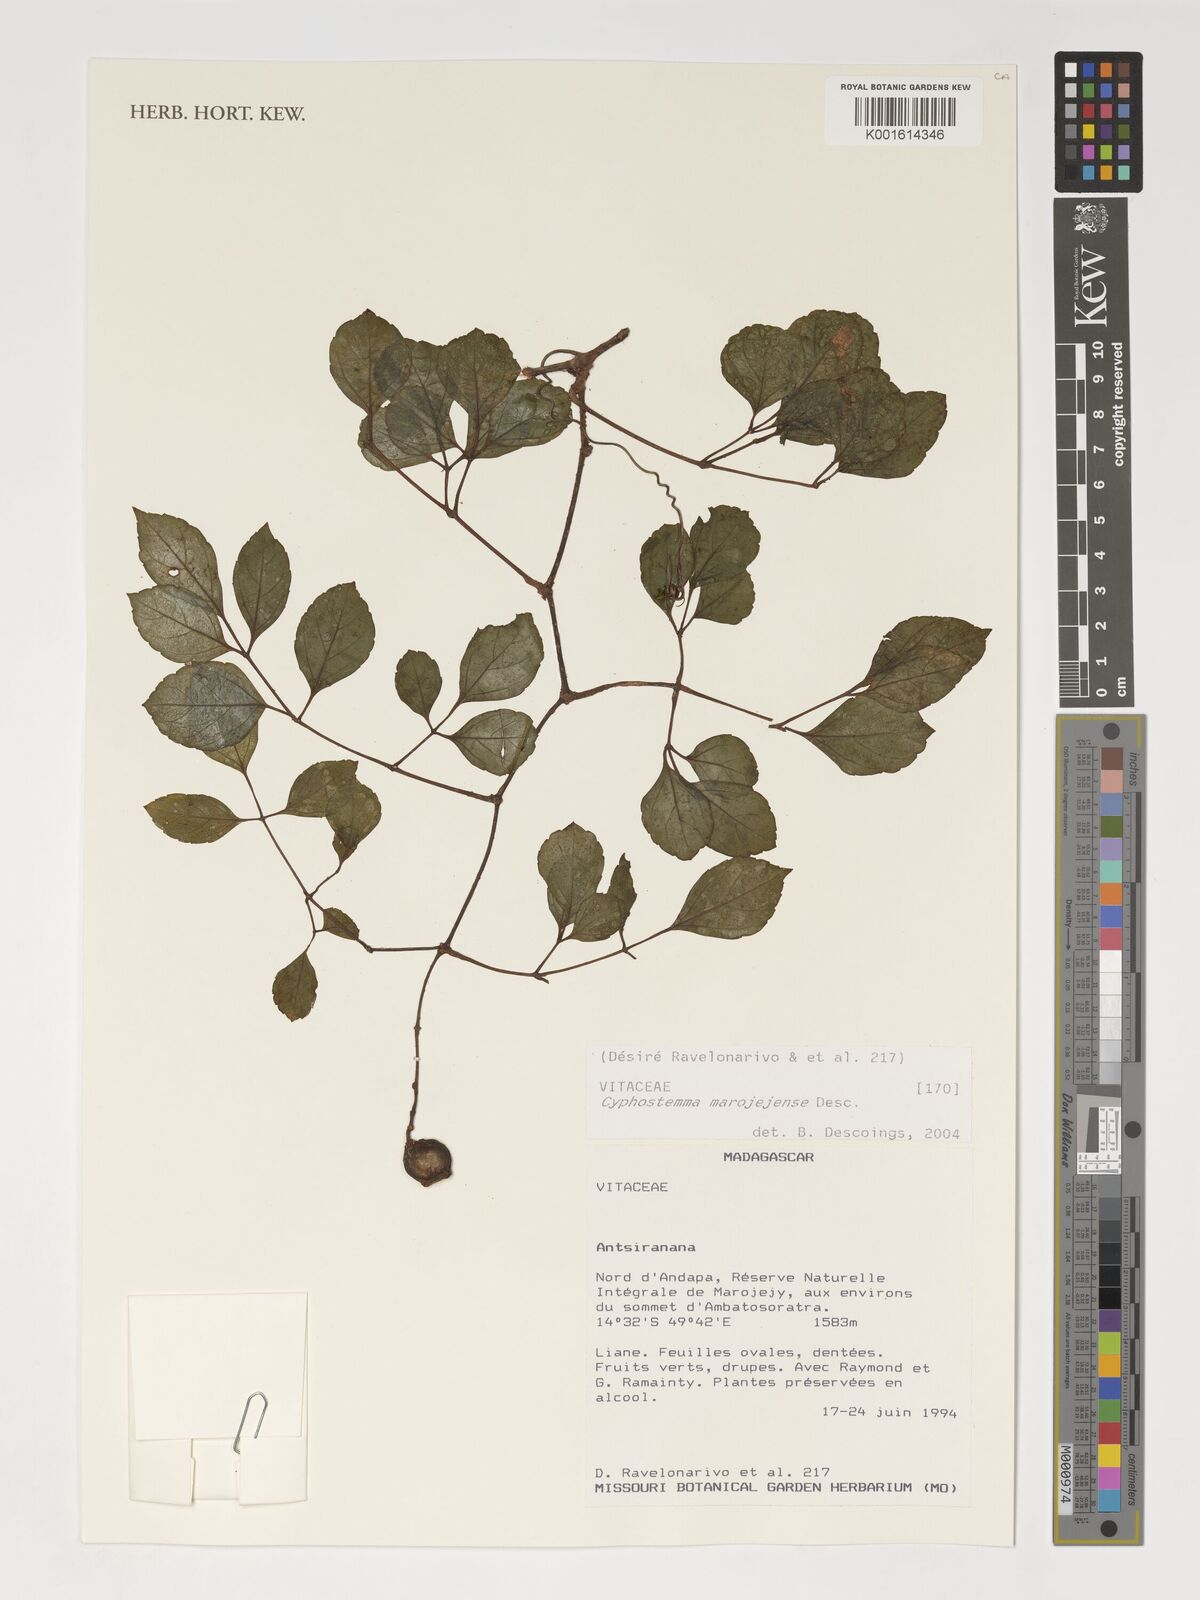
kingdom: Plantae
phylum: Tracheophyta
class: Magnoliopsida
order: Vitales
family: Vitaceae
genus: Cyphostemma
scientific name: Cyphostemma marojejyense
